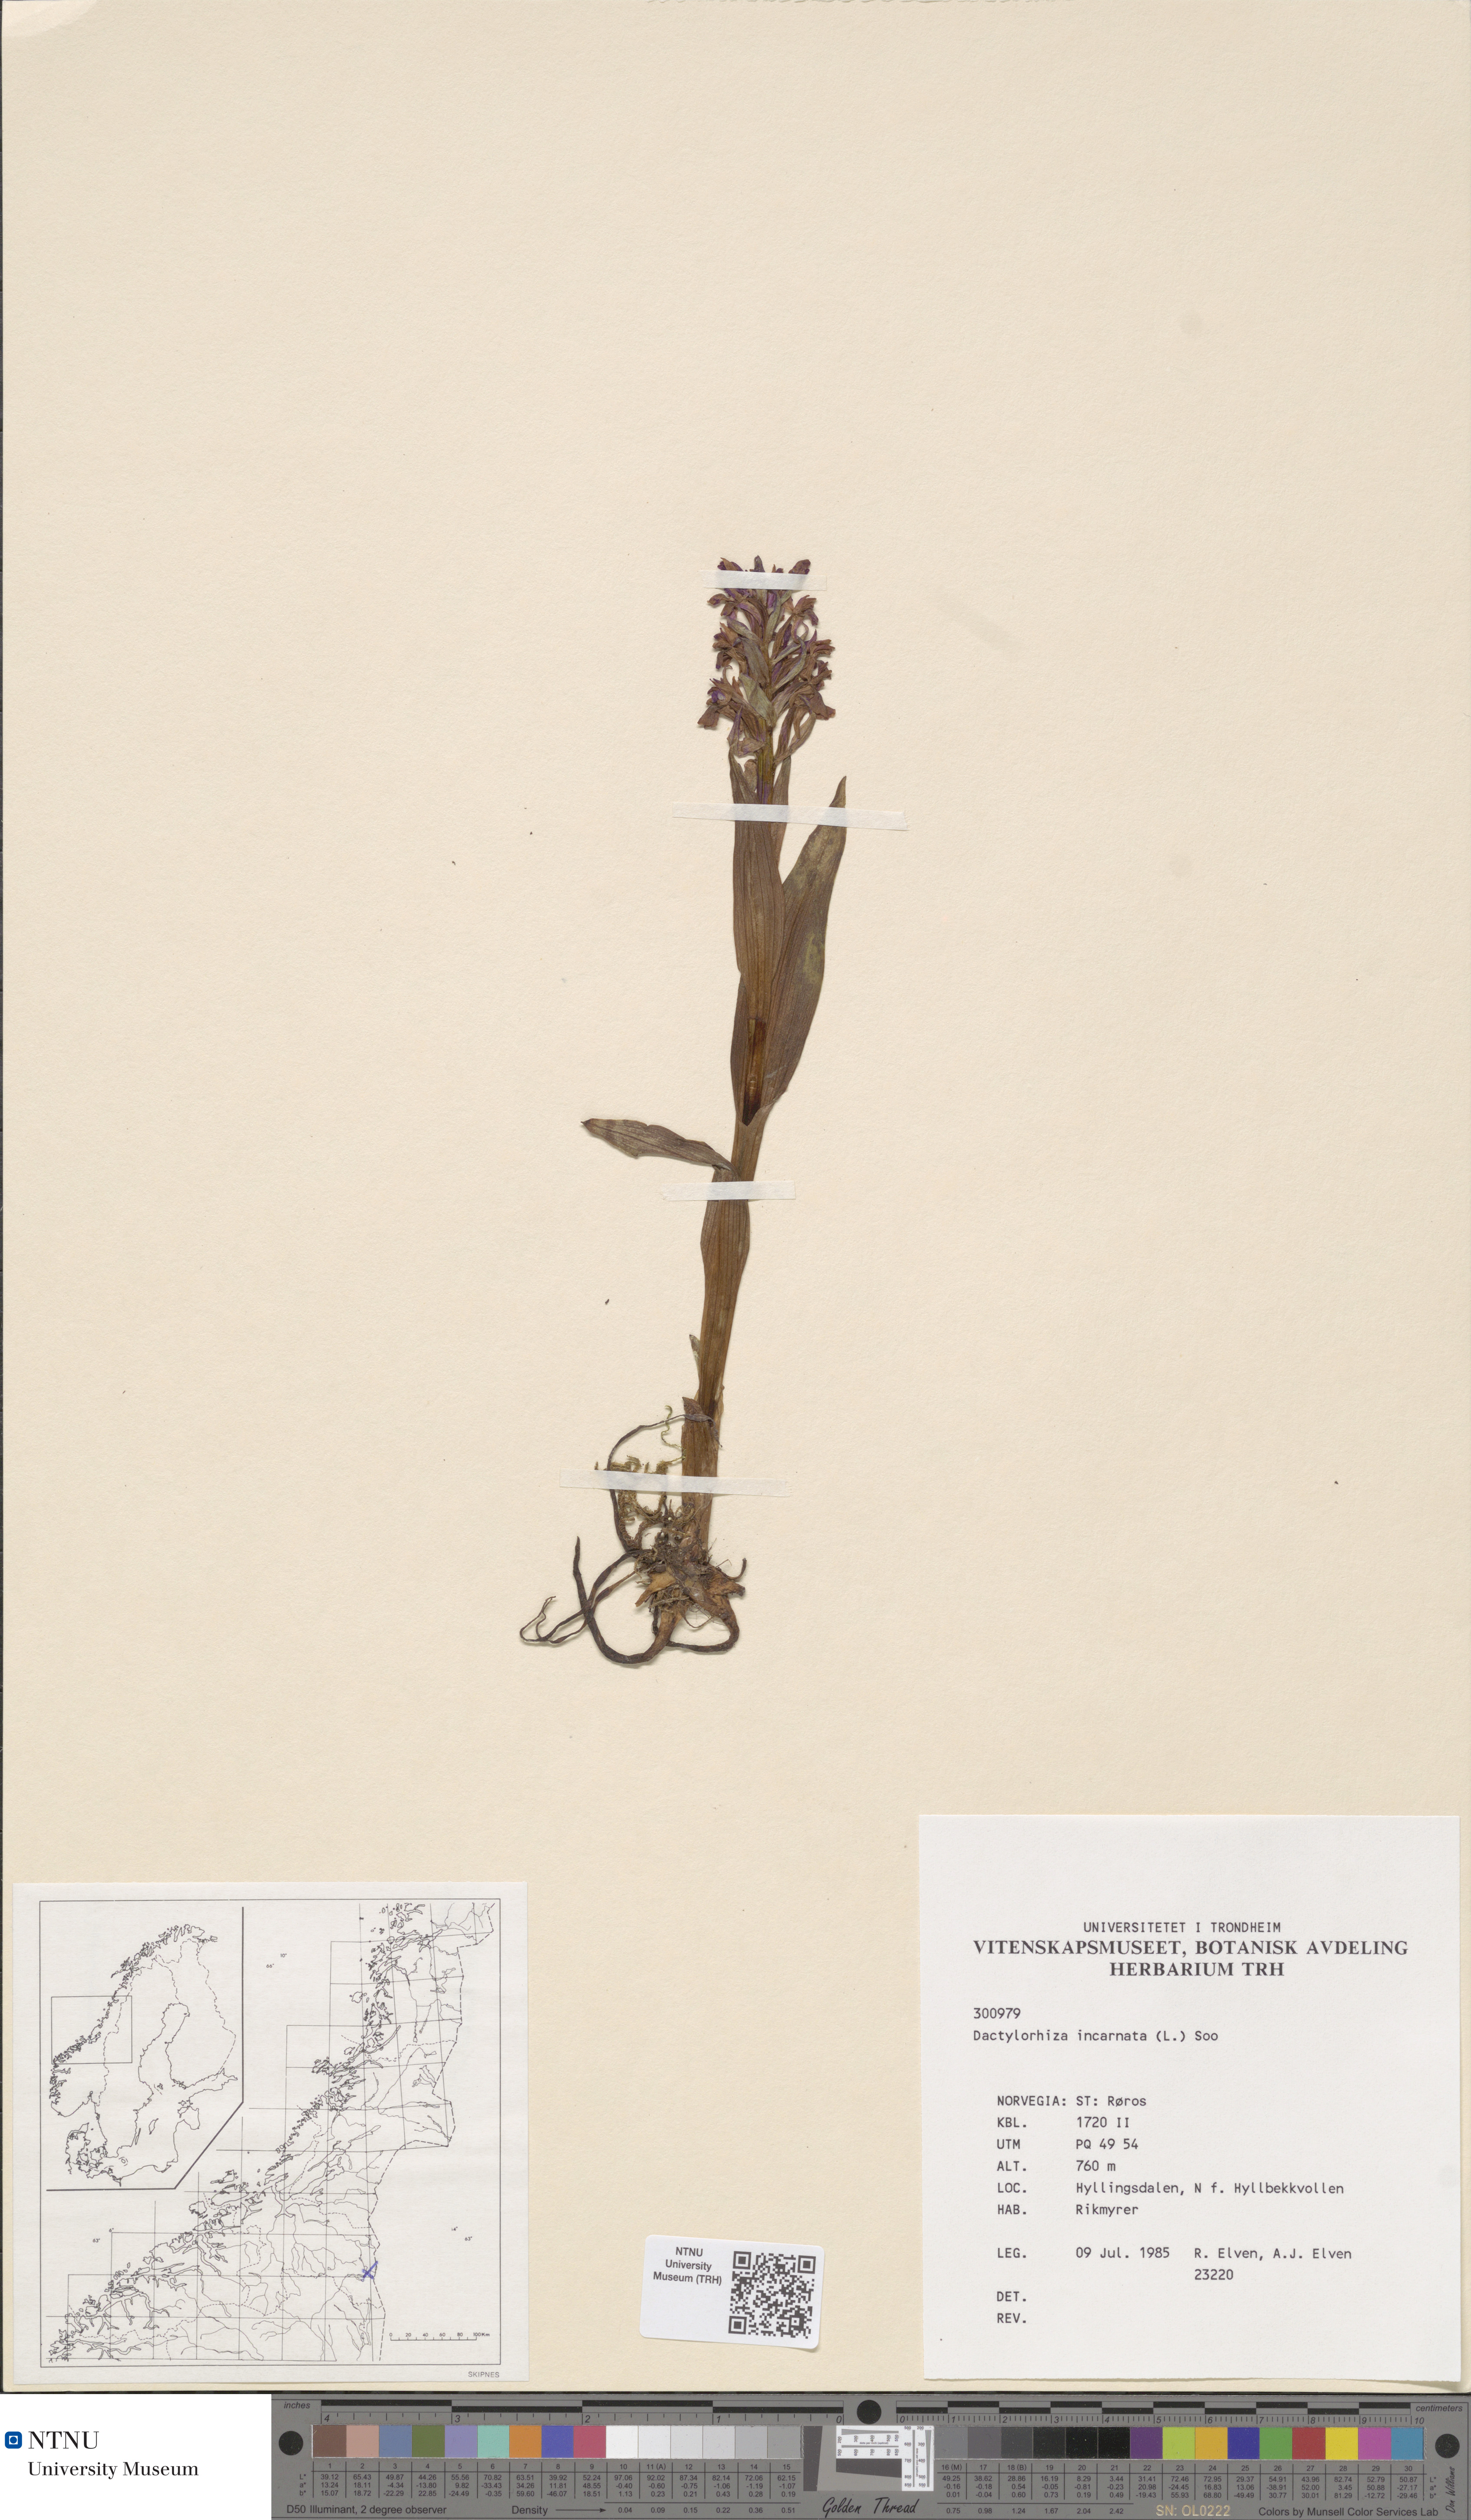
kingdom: Plantae
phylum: Tracheophyta
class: Liliopsida
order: Asparagales
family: Orchidaceae
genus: Dactylorhiza
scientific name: Dactylorhiza incarnata
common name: Early marsh-orchid
